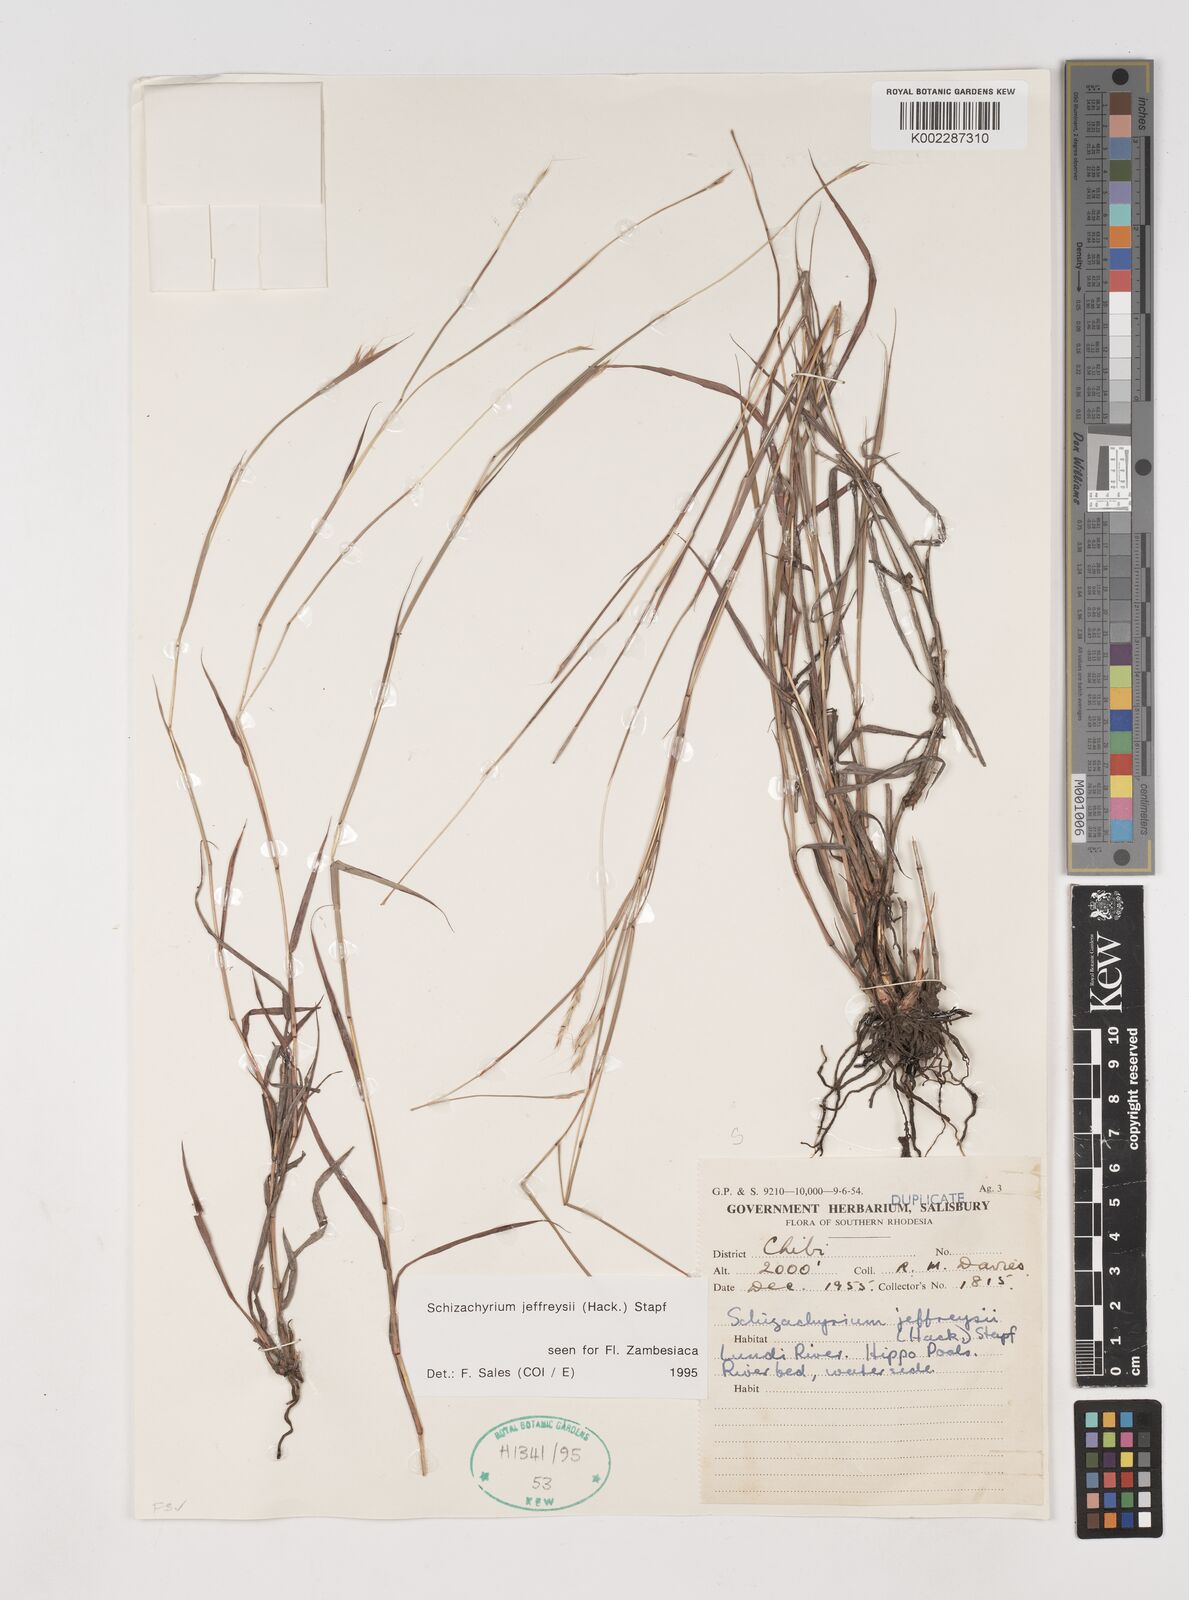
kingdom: Plantae
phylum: Tracheophyta
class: Liliopsida
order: Poales
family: Poaceae
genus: Schizachyrium
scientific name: Schizachyrium jeffreysii
